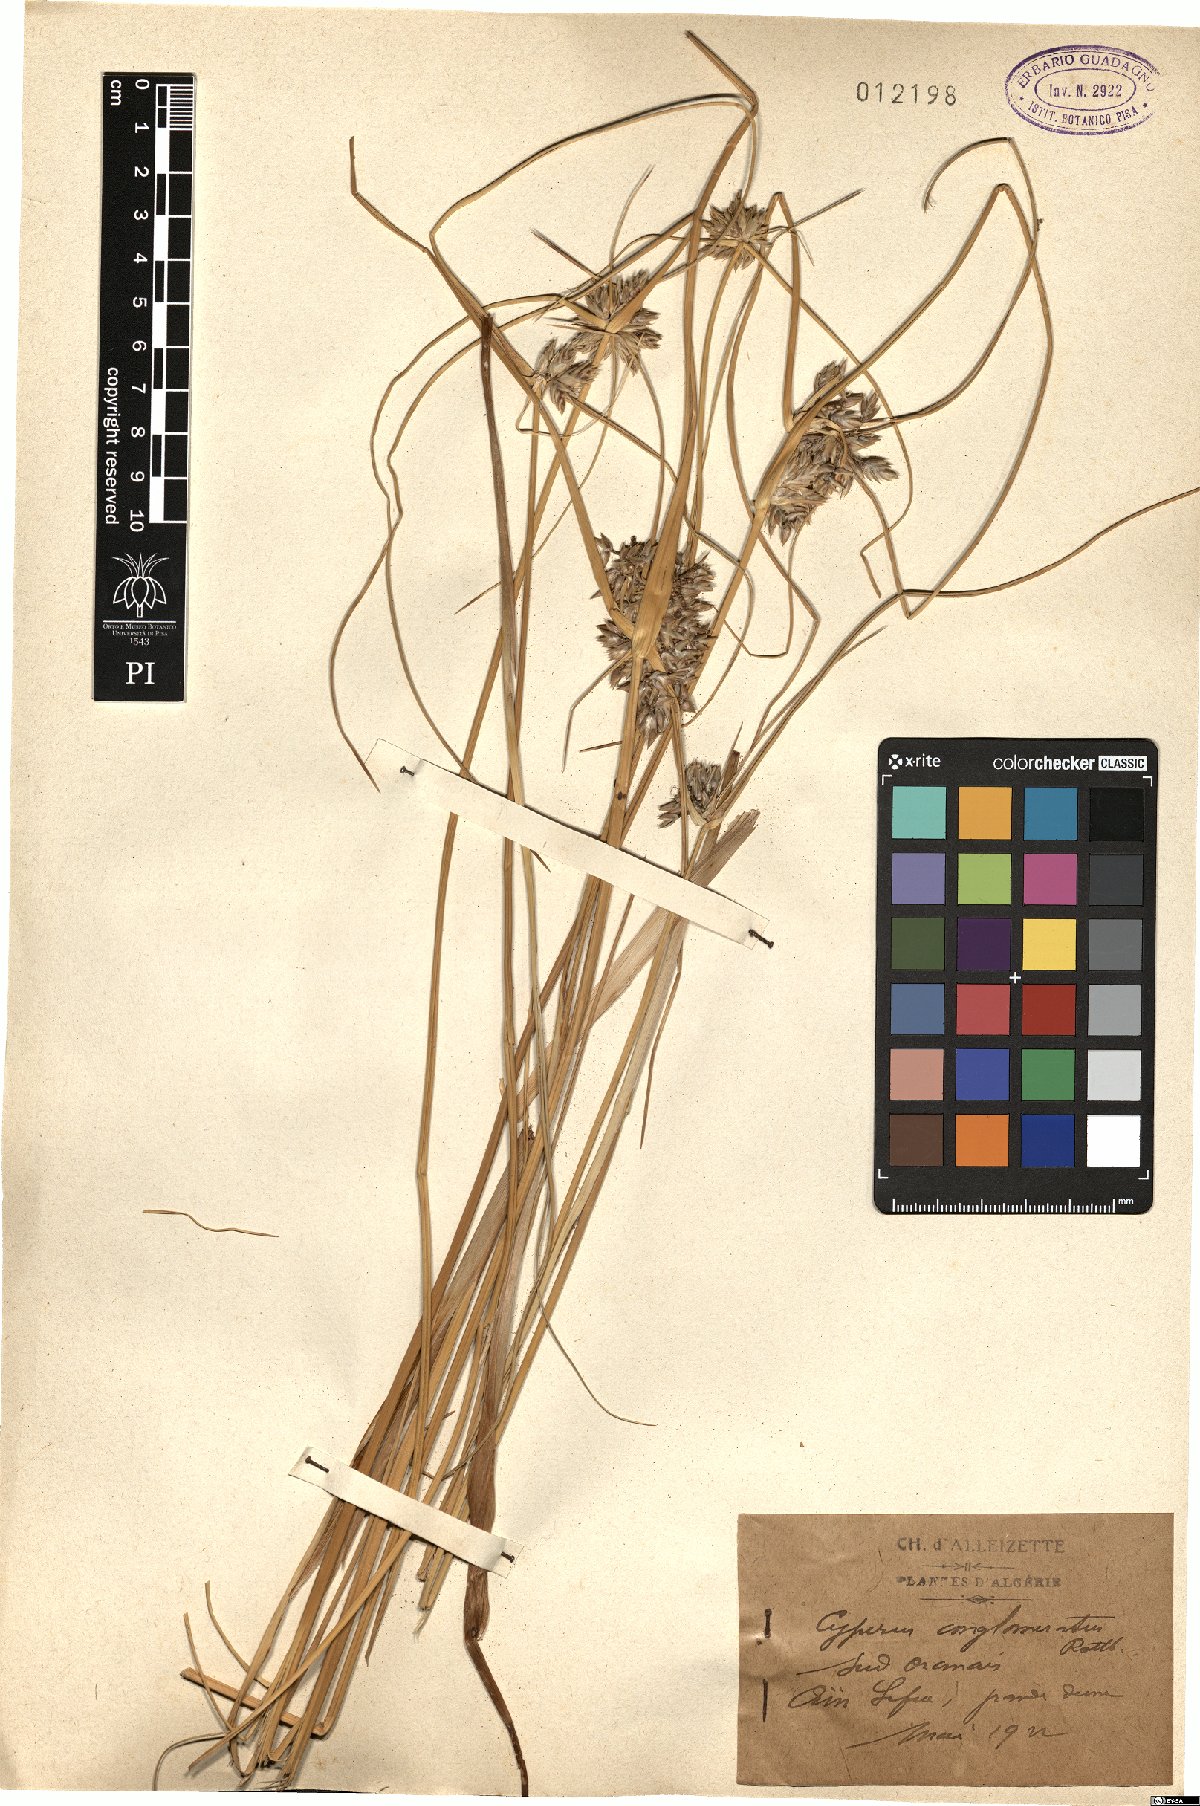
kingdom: Plantae
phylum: Tracheophyta
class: Liliopsida
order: Poales
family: Cyperaceae
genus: Cyperus
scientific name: Cyperus conglomeratus
